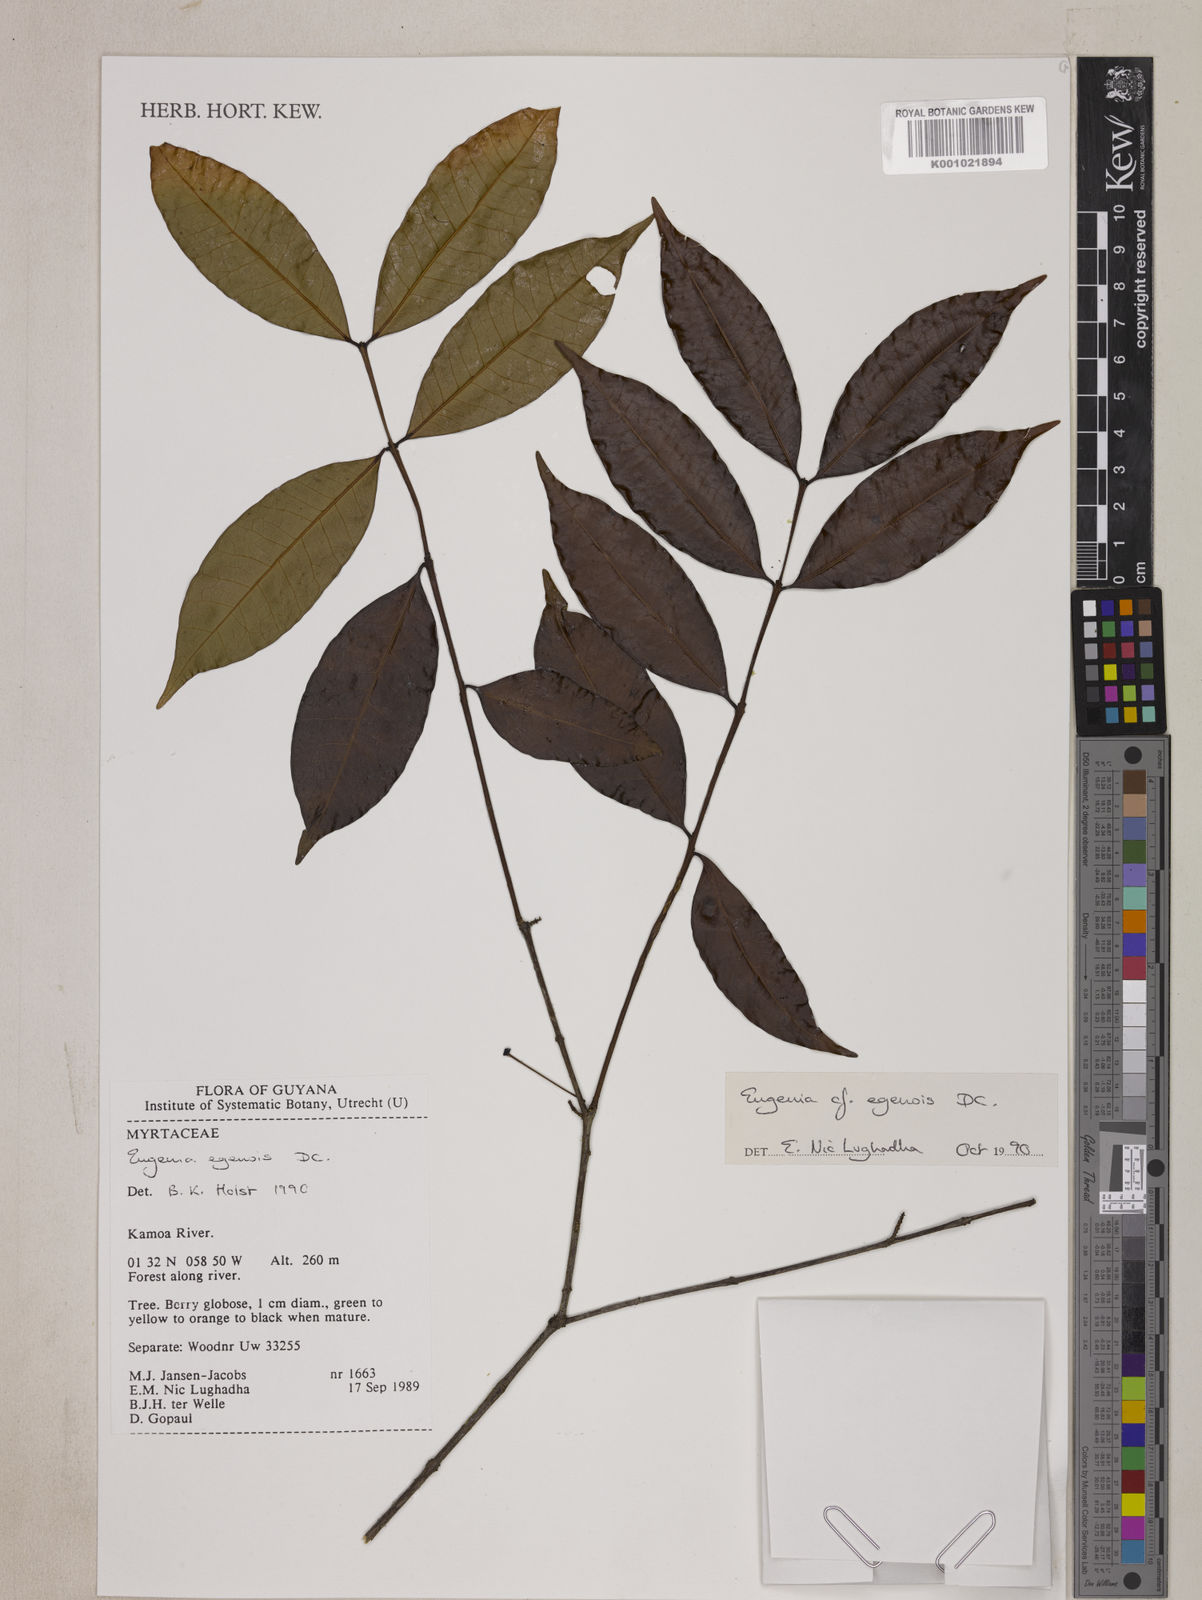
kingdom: Plantae
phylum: Tracheophyta
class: Magnoliopsida
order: Myrtales
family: Myrtaceae
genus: Eugenia
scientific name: Eugenia egensis
